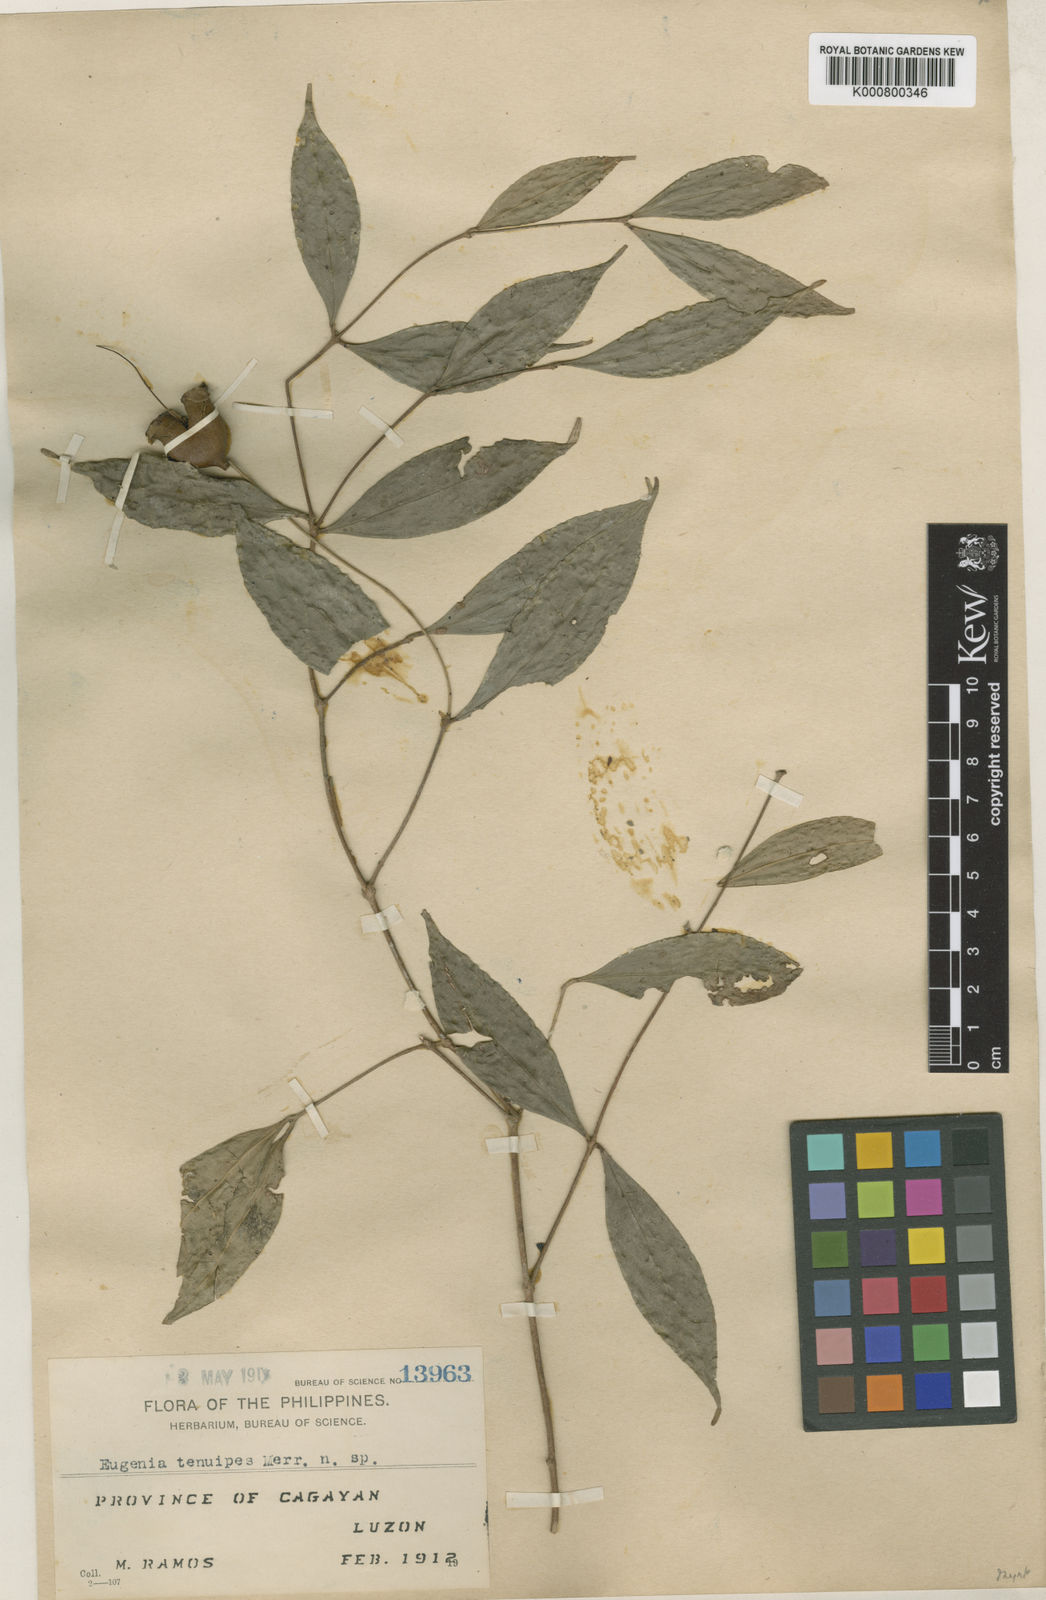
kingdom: Plantae
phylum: Tracheophyta
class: Magnoliopsida
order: Myrtales
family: Myrtaceae
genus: Syzygium
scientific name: Syzygium tenuipes
